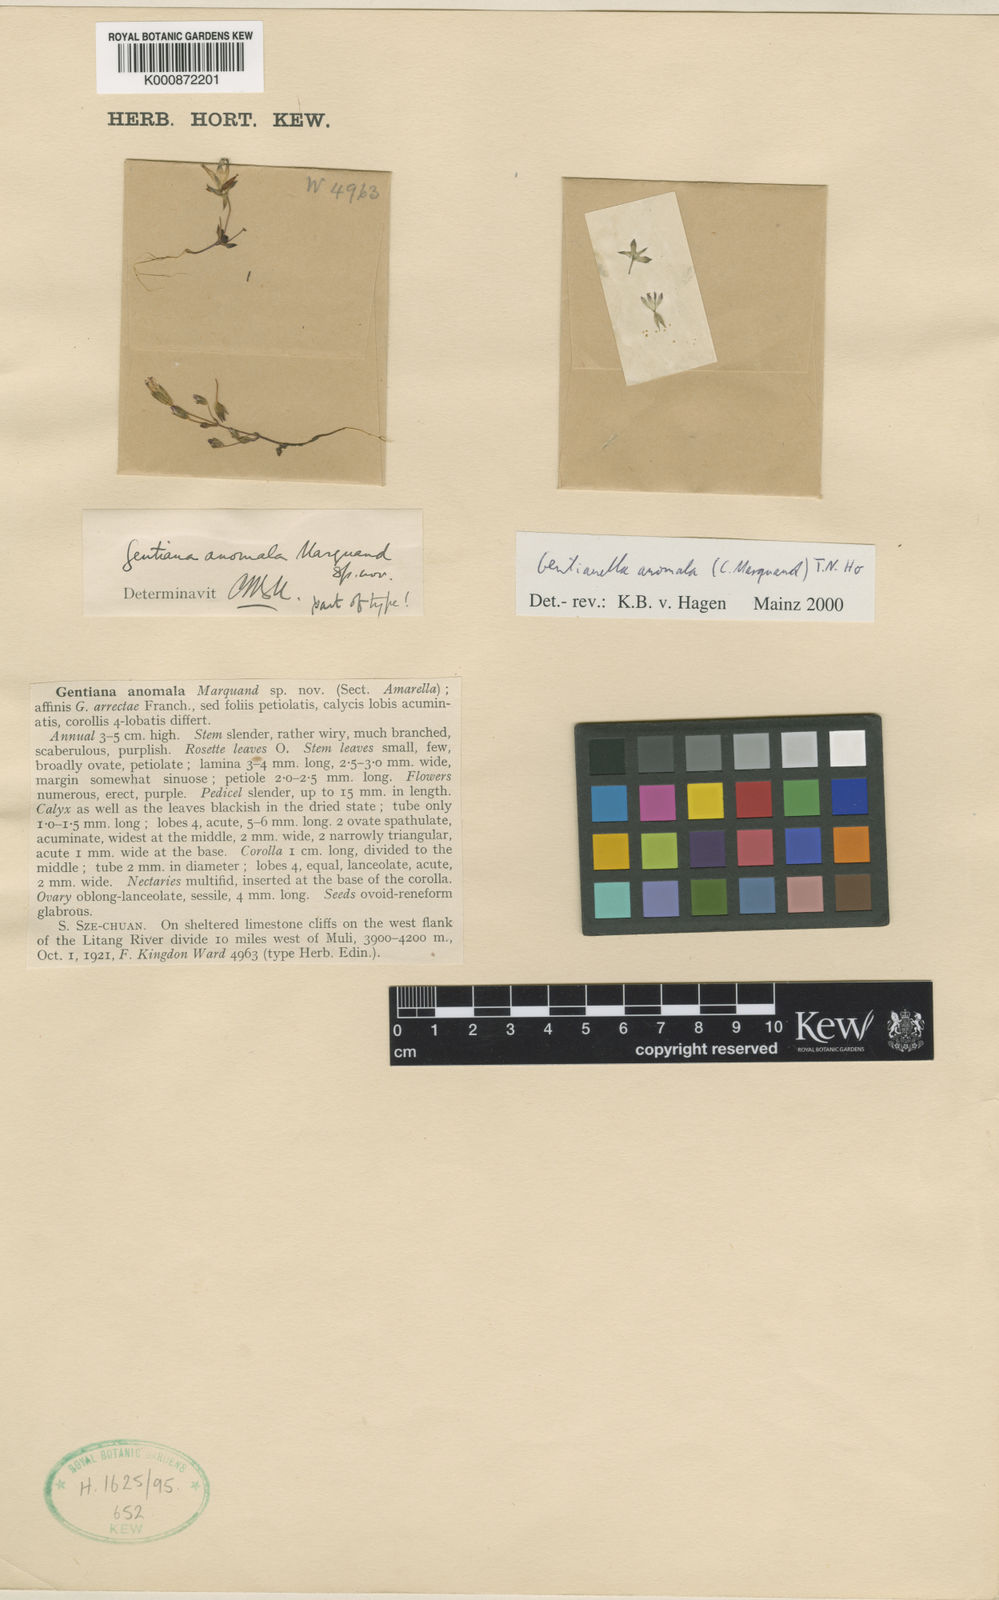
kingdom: Plantae
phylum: Tracheophyta
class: Magnoliopsida
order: Gentianales
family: Gentianaceae
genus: Gentianella
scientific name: Gentianella anomala
